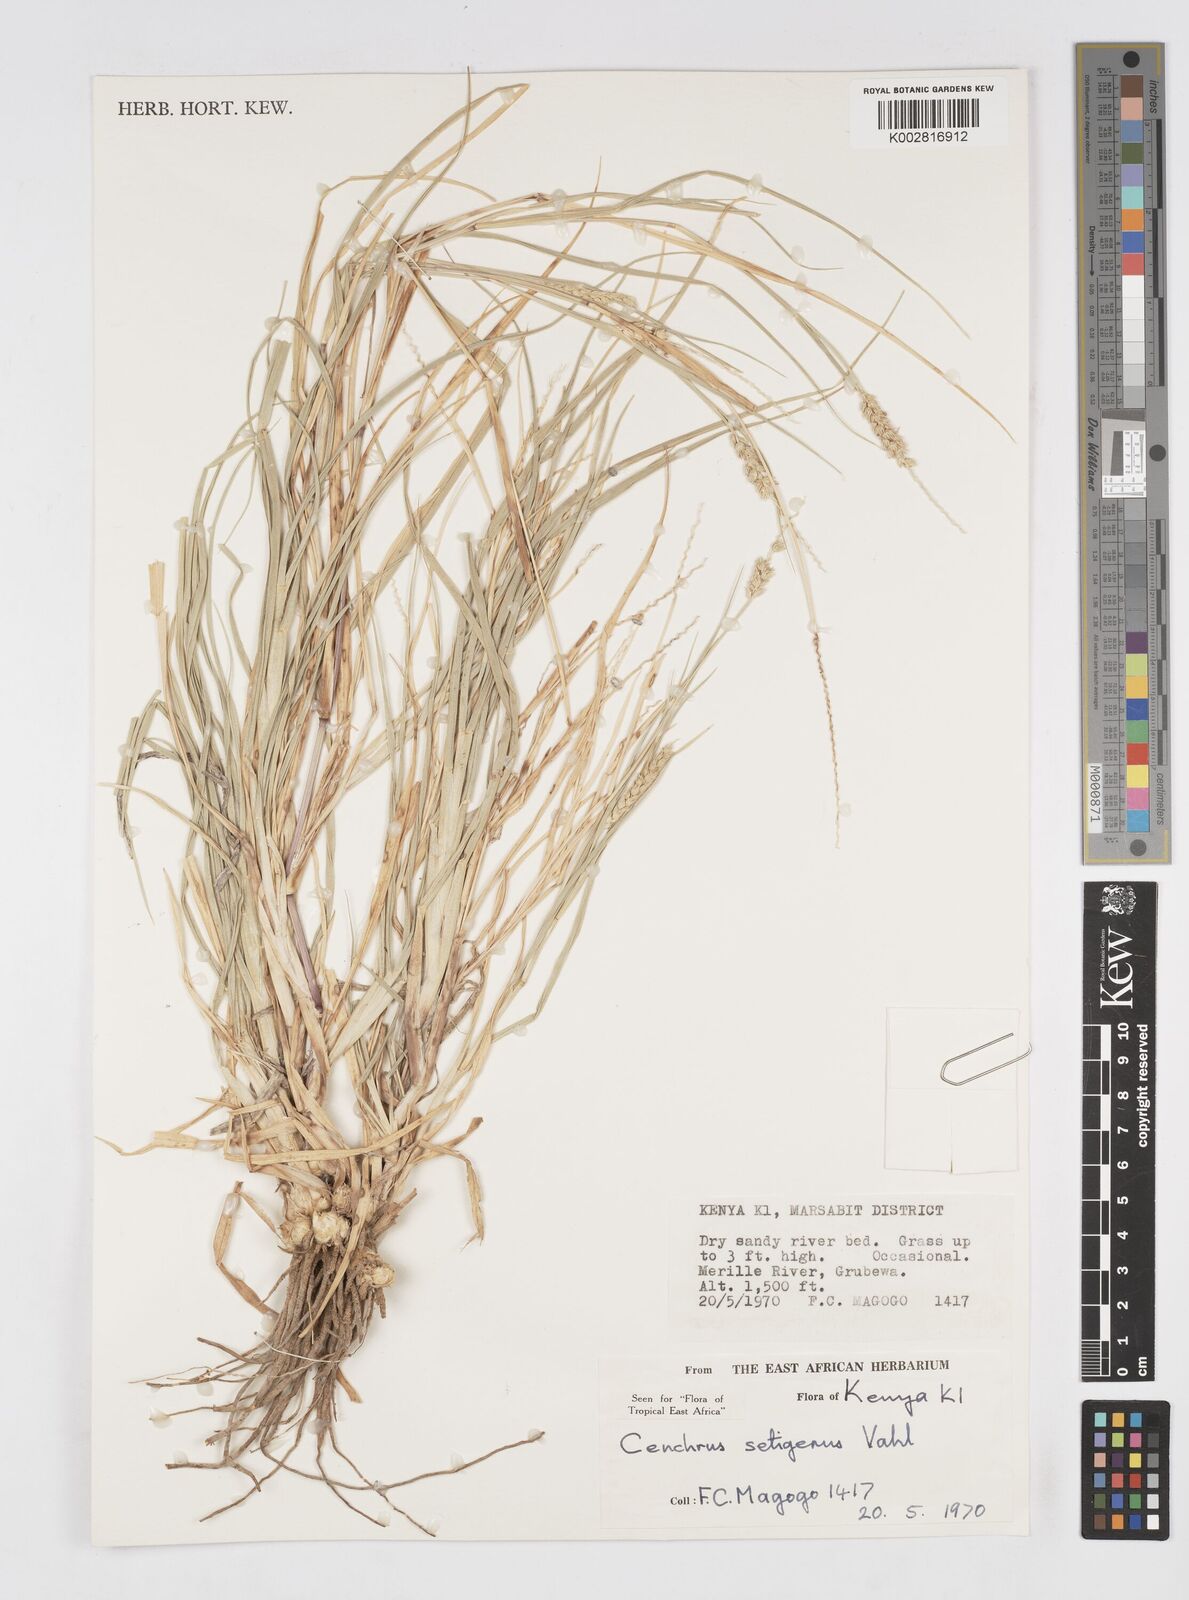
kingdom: Plantae
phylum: Tracheophyta
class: Liliopsida
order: Poales
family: Poaceae
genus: Cenchrus
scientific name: Cenchrus setigerus
